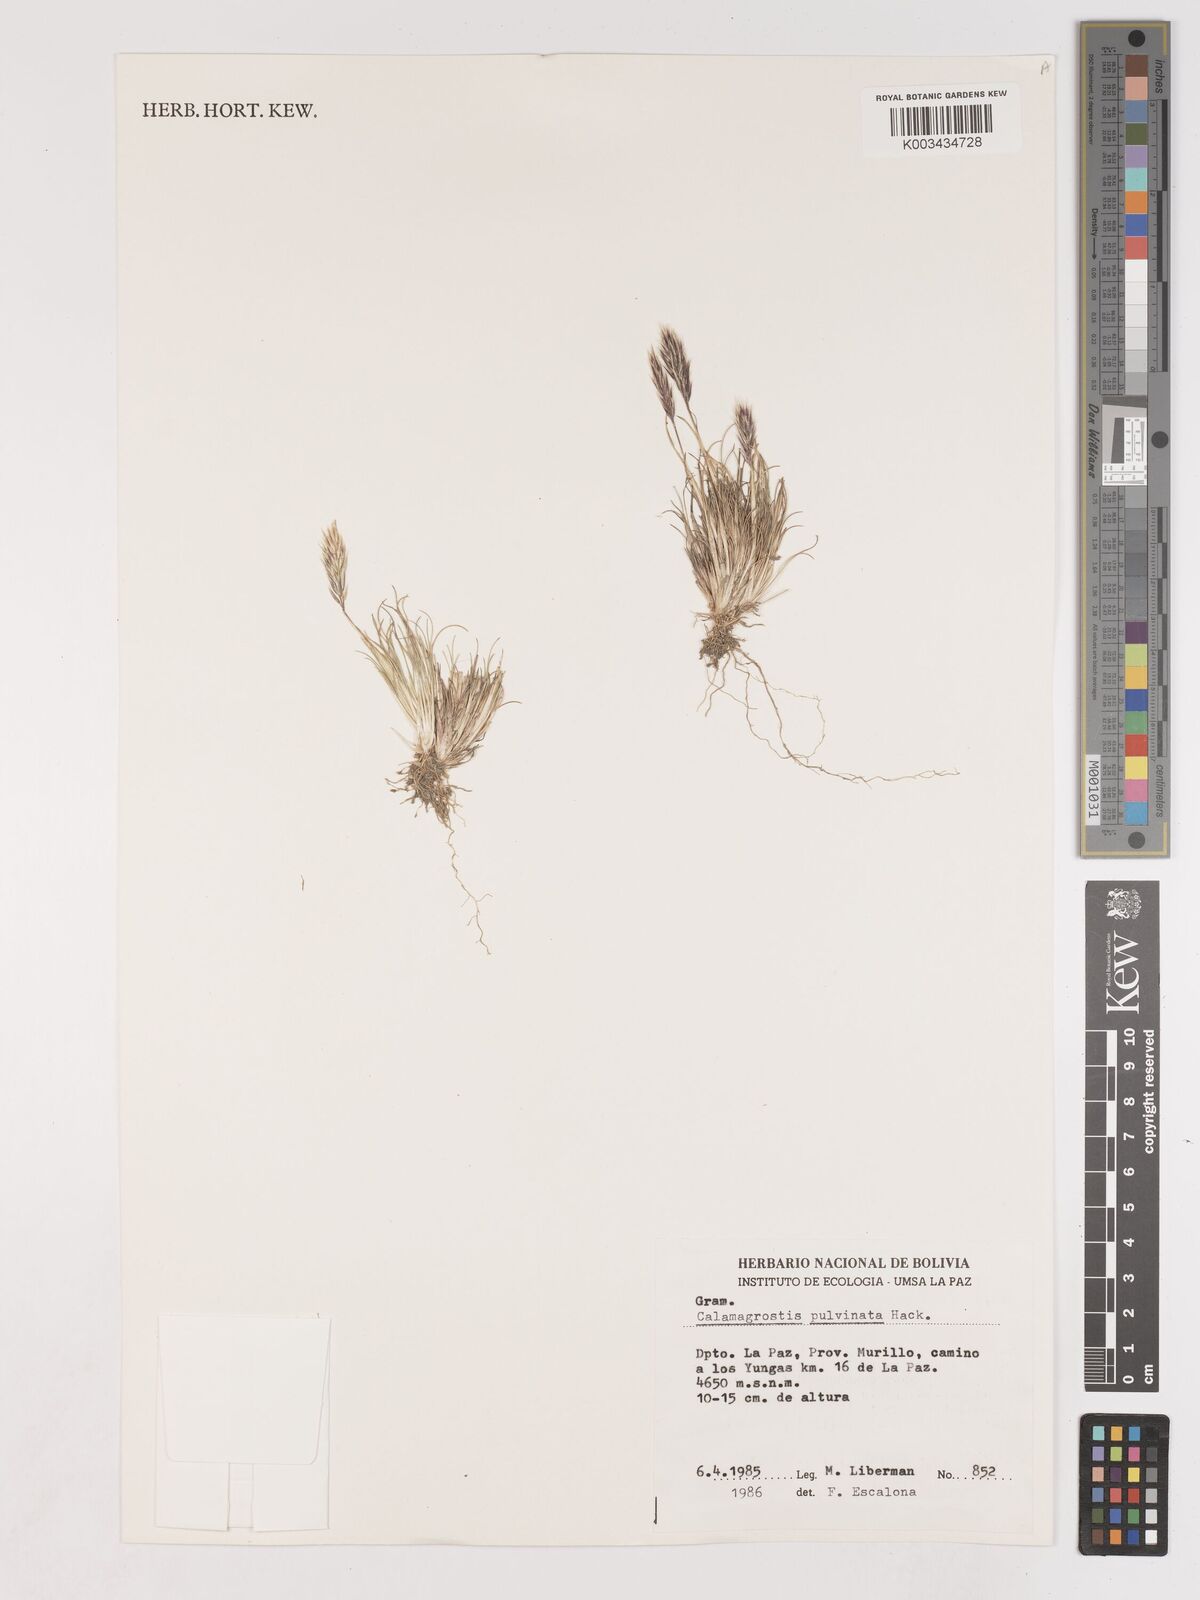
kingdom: Plantae
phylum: Tracheophyta
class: Liliopsida
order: Poales
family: Poaceae
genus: Cinnagrostis
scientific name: Cinnagrostis vicunarum
